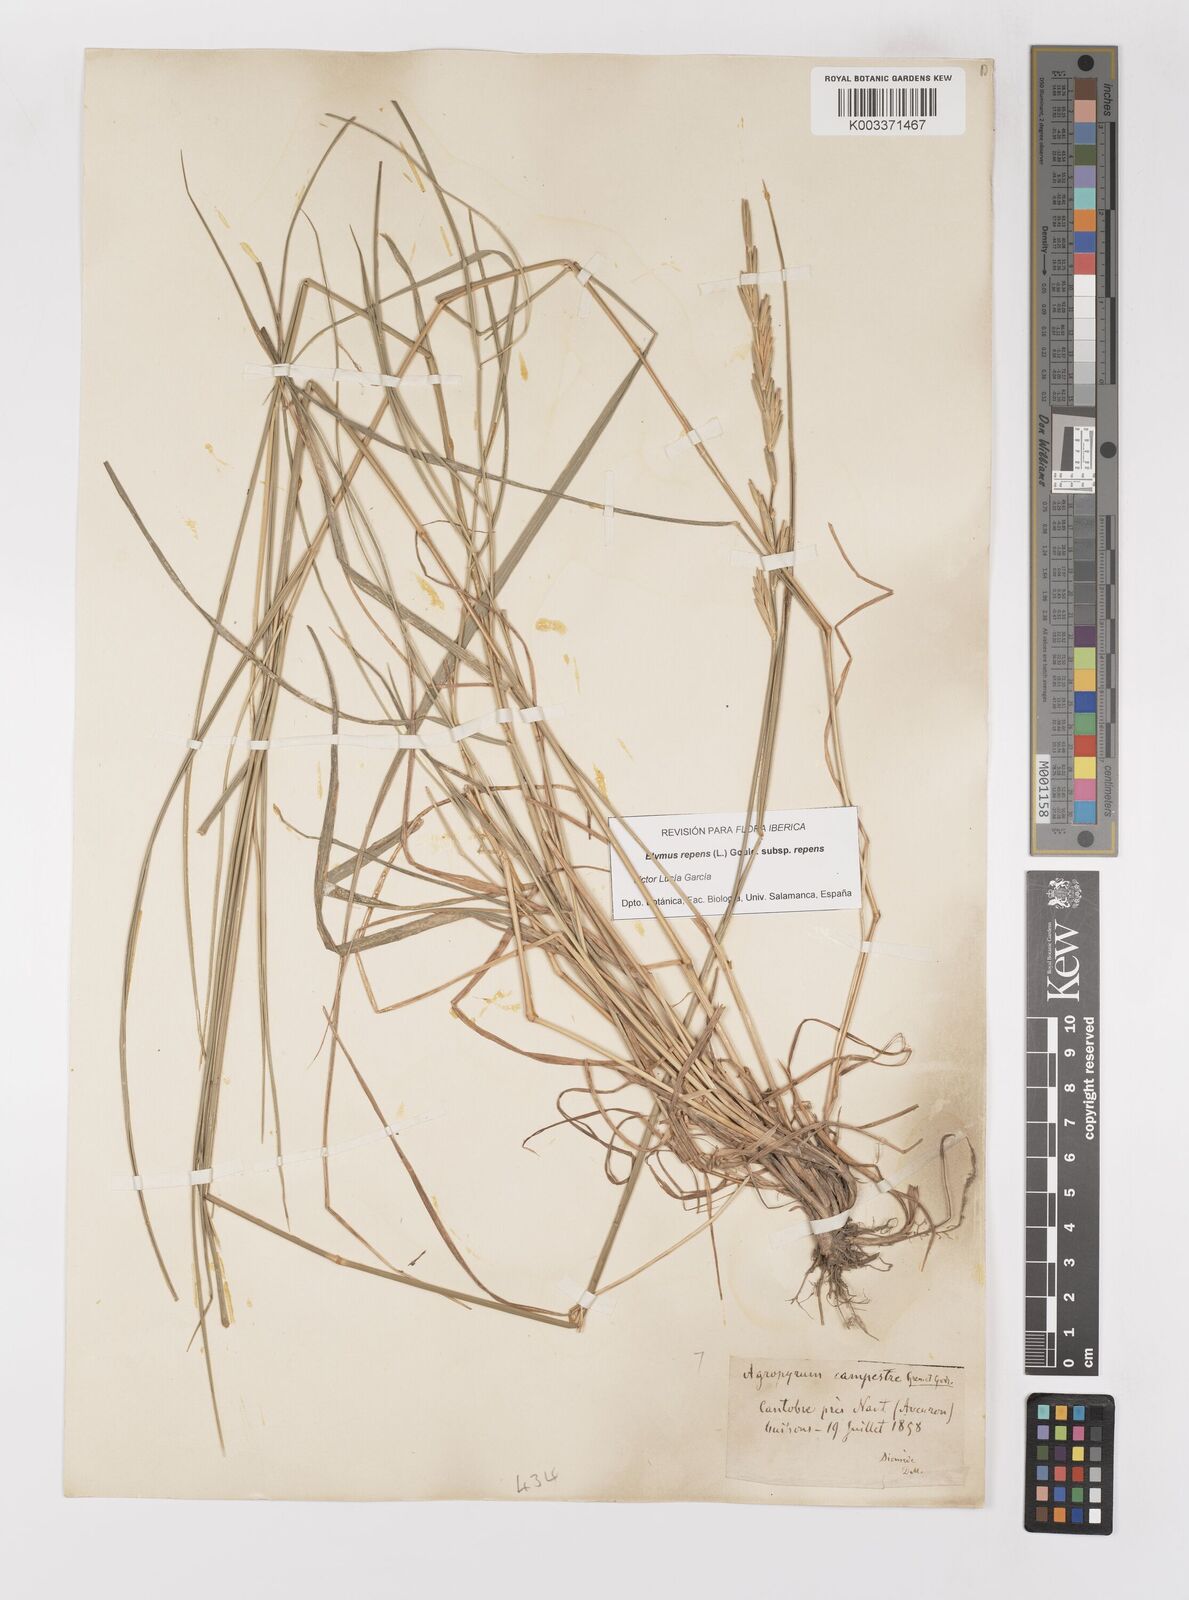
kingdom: Plantae
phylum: Tracheophyta
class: Liliopsida
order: Poales
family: Poaceae
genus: Elymus
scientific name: Elymus repens
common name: Quackgrass
